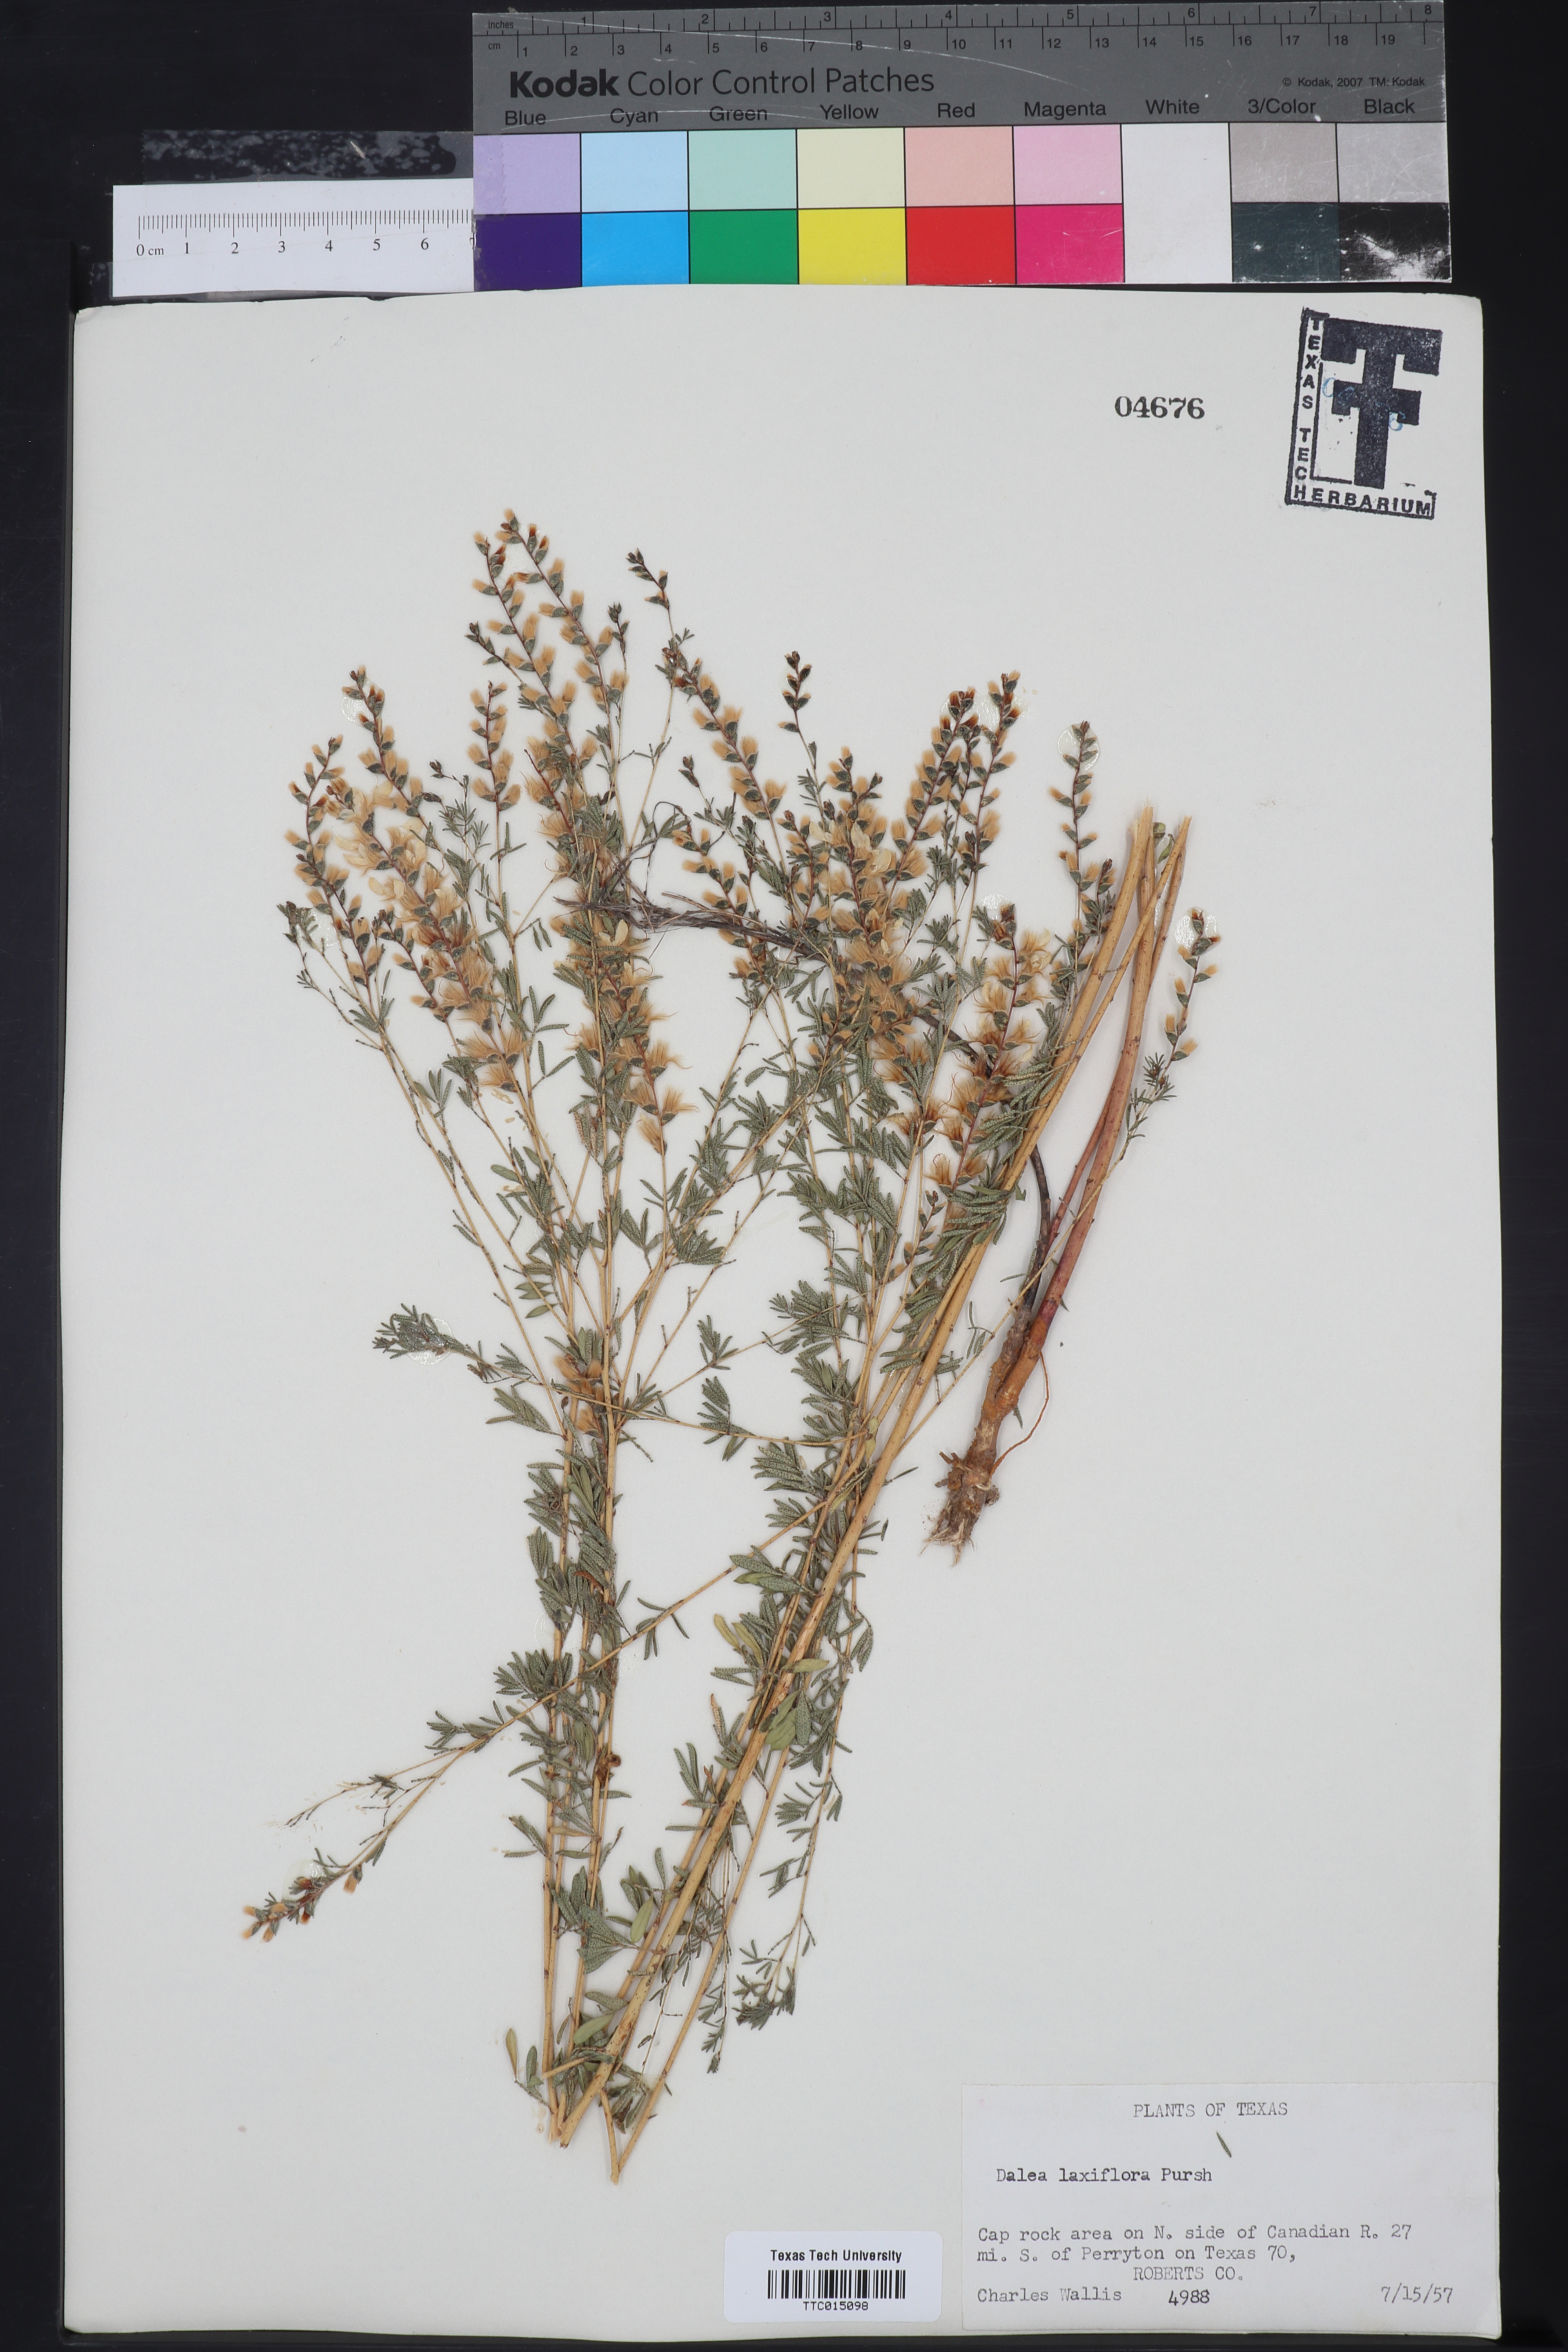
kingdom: Plantae
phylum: Tracheophyta
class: Magnoliopsida
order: Fabales
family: Fabaceae
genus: Dalea
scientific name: Dalea hegewischiana
